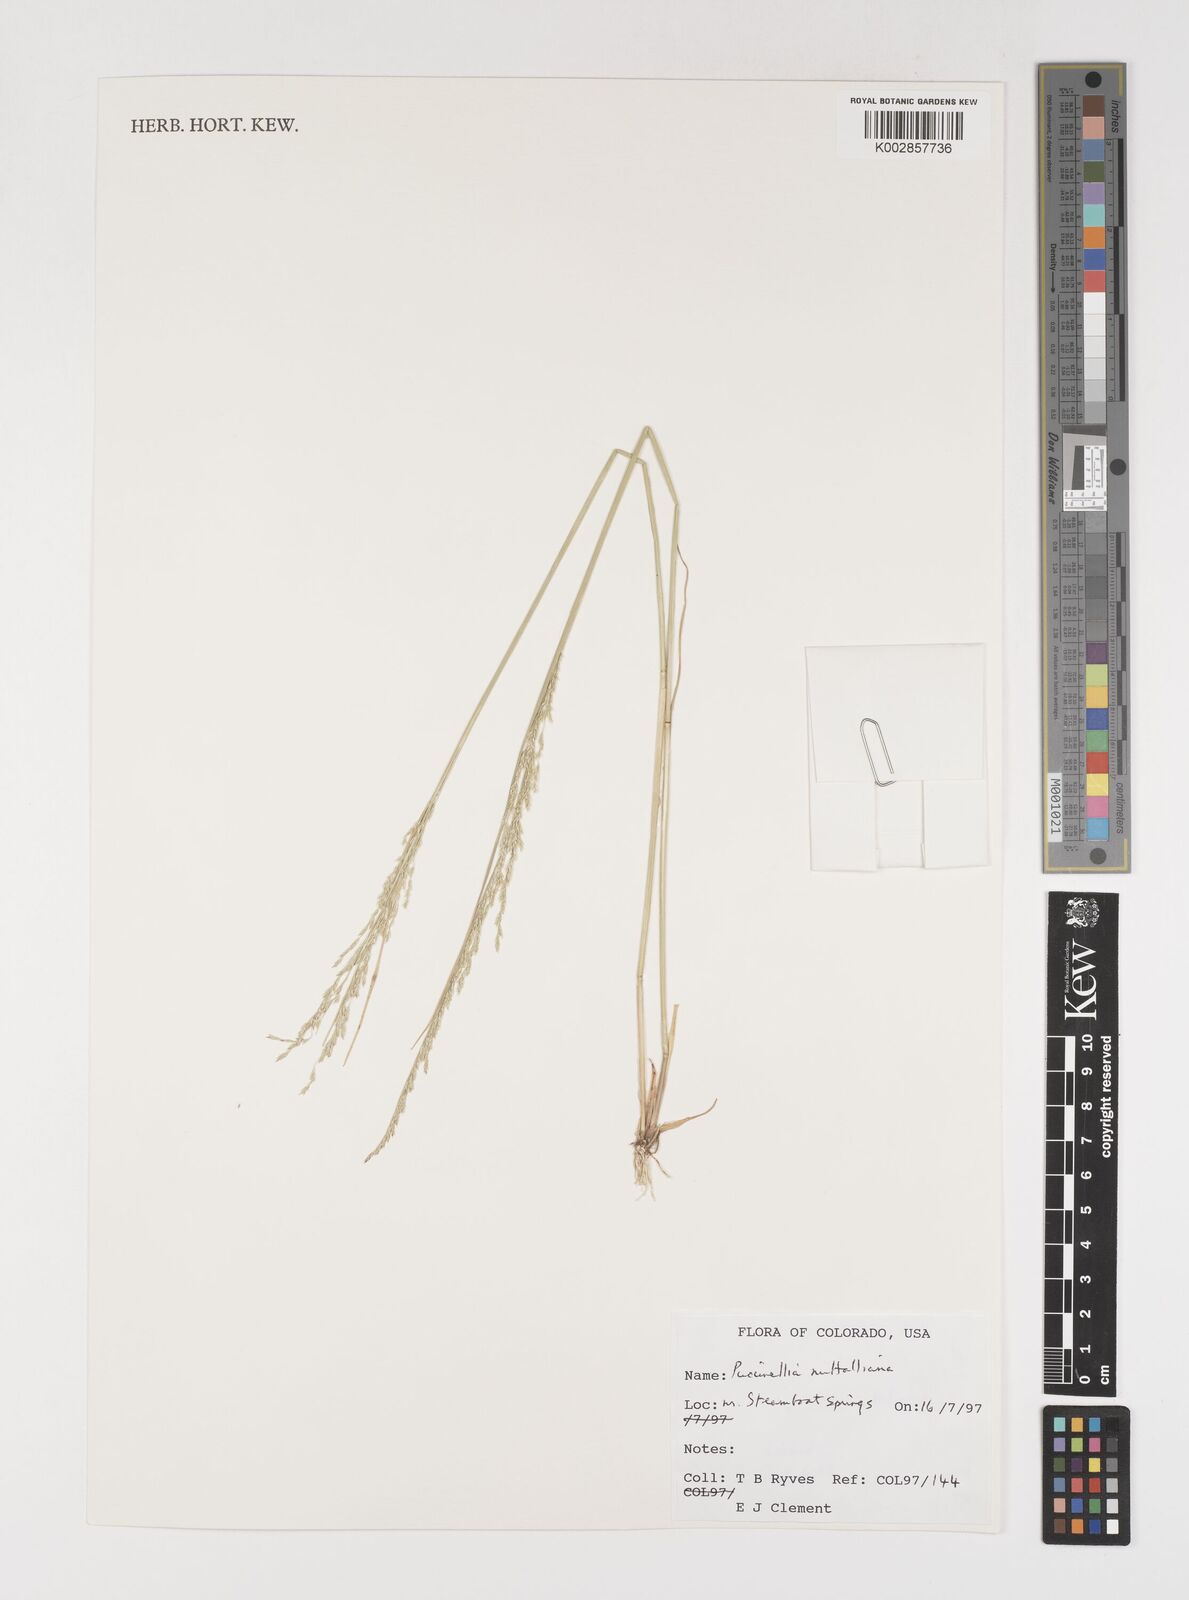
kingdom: Plantae
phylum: Tracheophyta
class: Liliopsida
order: Poales
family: Poaceae
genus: Puccinellia
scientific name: Puccinellia nuttalliana
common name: Nuttall's alkali grass
